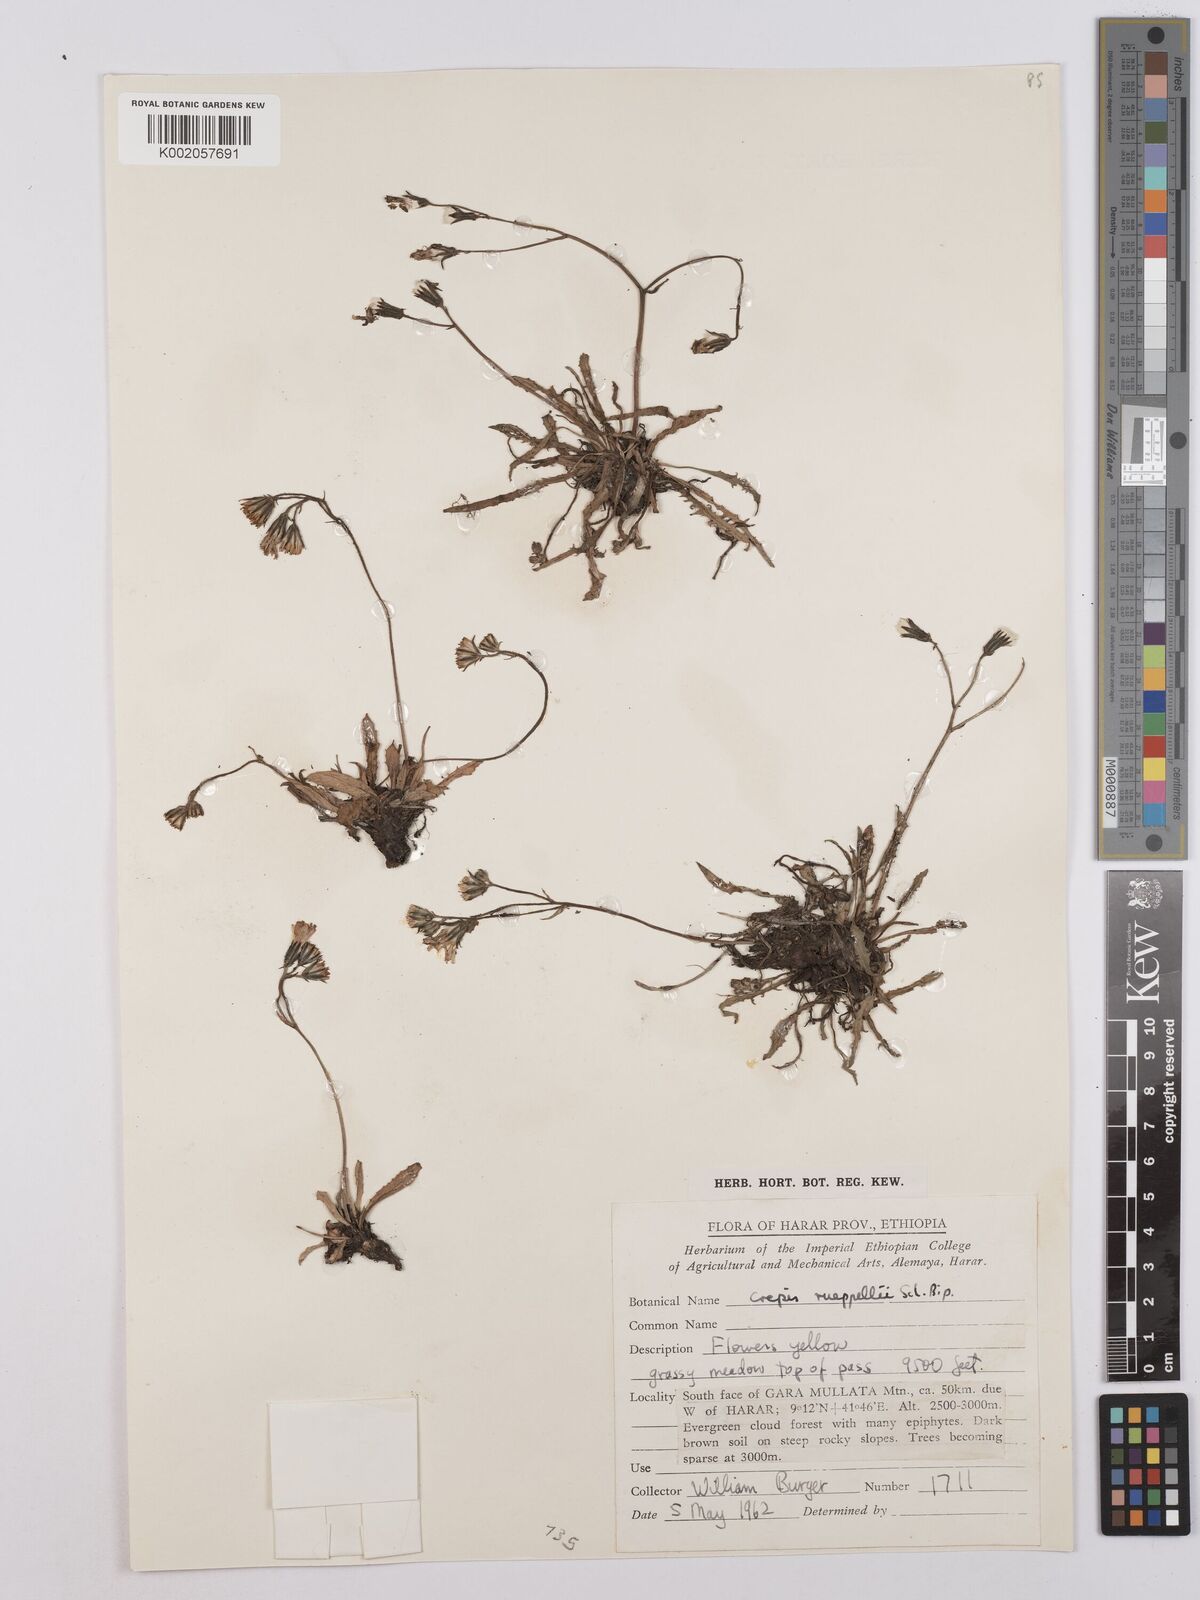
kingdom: Plantae
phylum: Tracheophyta
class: Magnoliopsida
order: Asterales
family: Asteraceae
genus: Crepis
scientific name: Crepis rueppellii
